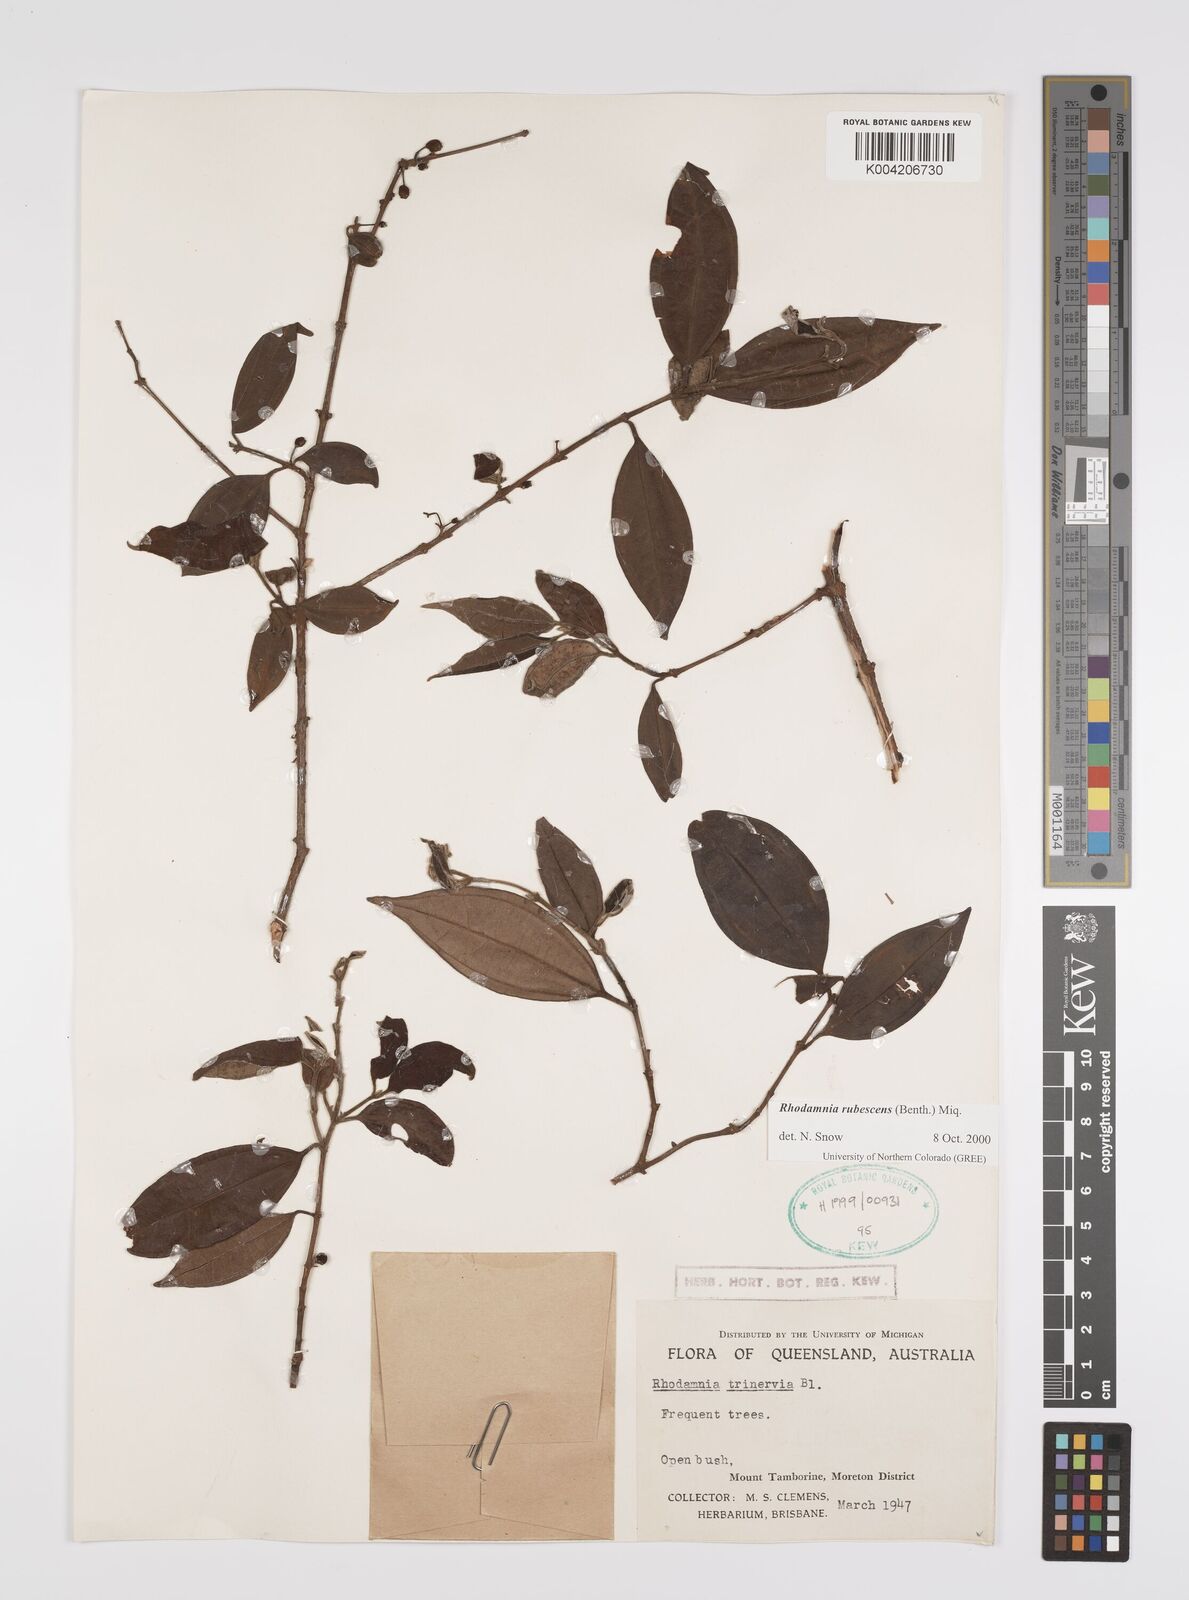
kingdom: Plantae
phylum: Tracheophyta
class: Magnoliopsida
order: Myrtales
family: Myrtaceae
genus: Rhodamnia
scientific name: Rhodamnia rubescens
